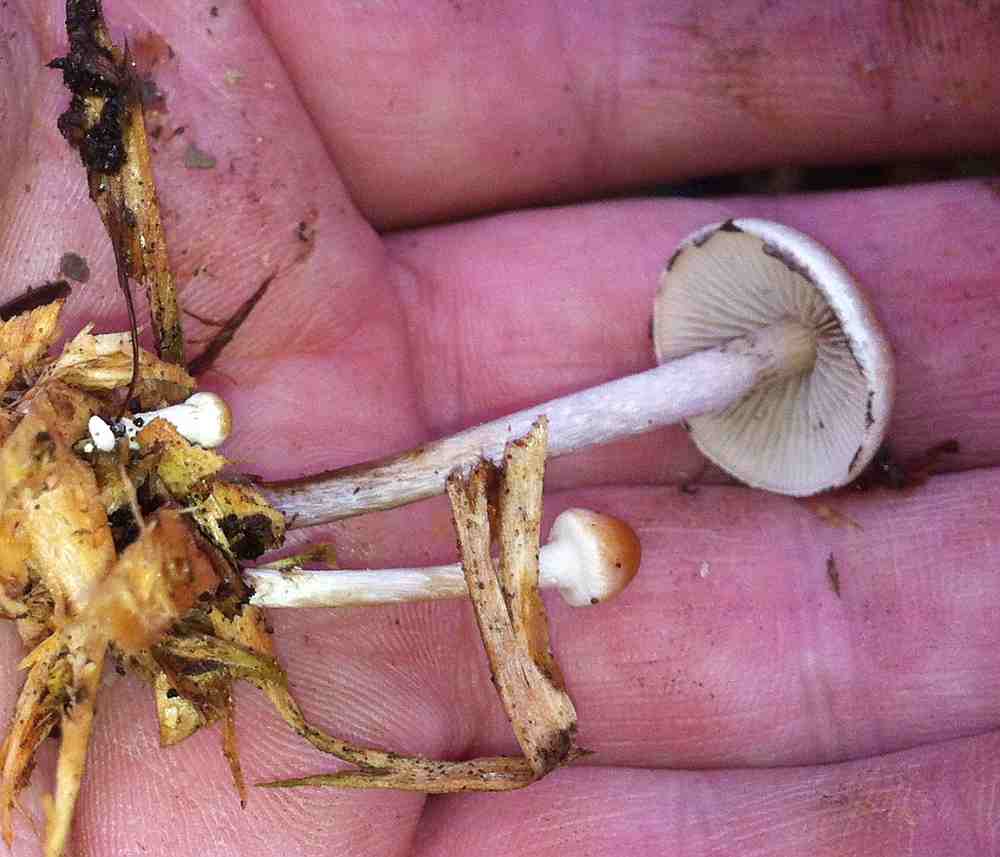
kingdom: Fungi
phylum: Basidiomycota
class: Agaricomycetes
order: Agaricales
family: Strophariaceae
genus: Hypholoma
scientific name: Hypholoma marginatum
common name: enlig svovlhat
